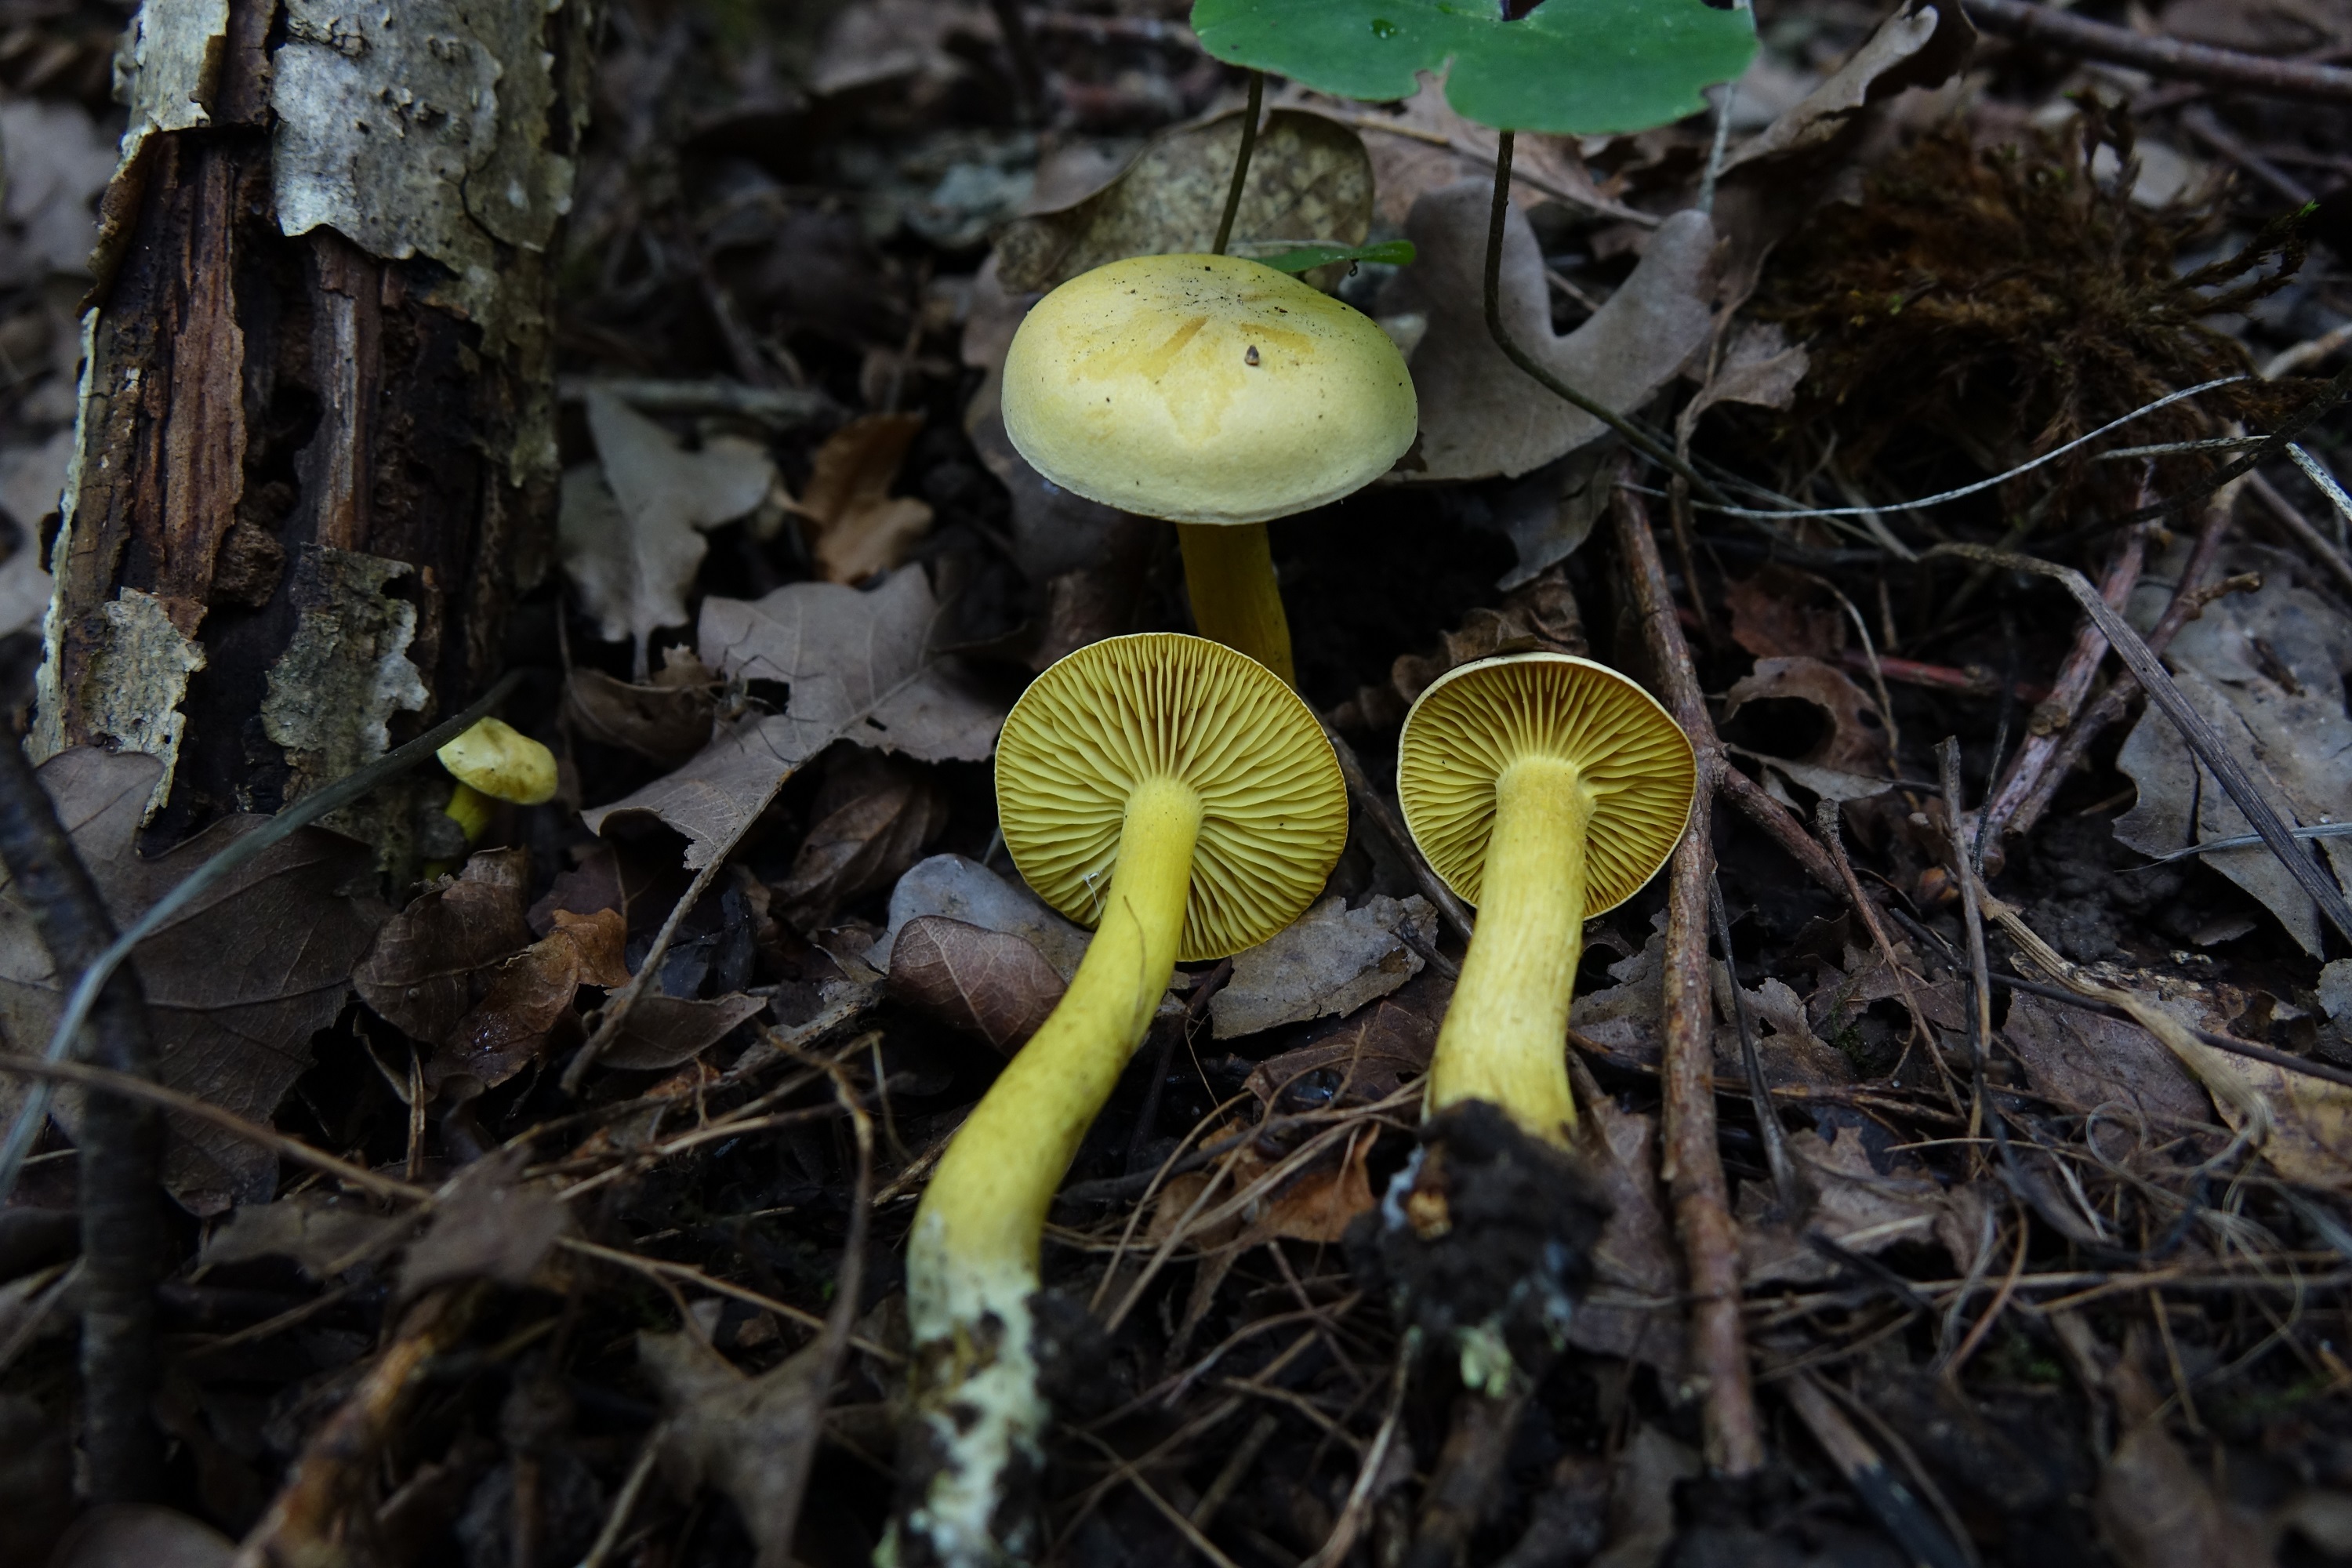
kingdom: Fungi
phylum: Basidiomycota
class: Agaricomycetes
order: Agaricales
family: Tricholomataceae
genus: Tricholoma
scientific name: Tricholoma sulphureum
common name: Stinky knight
